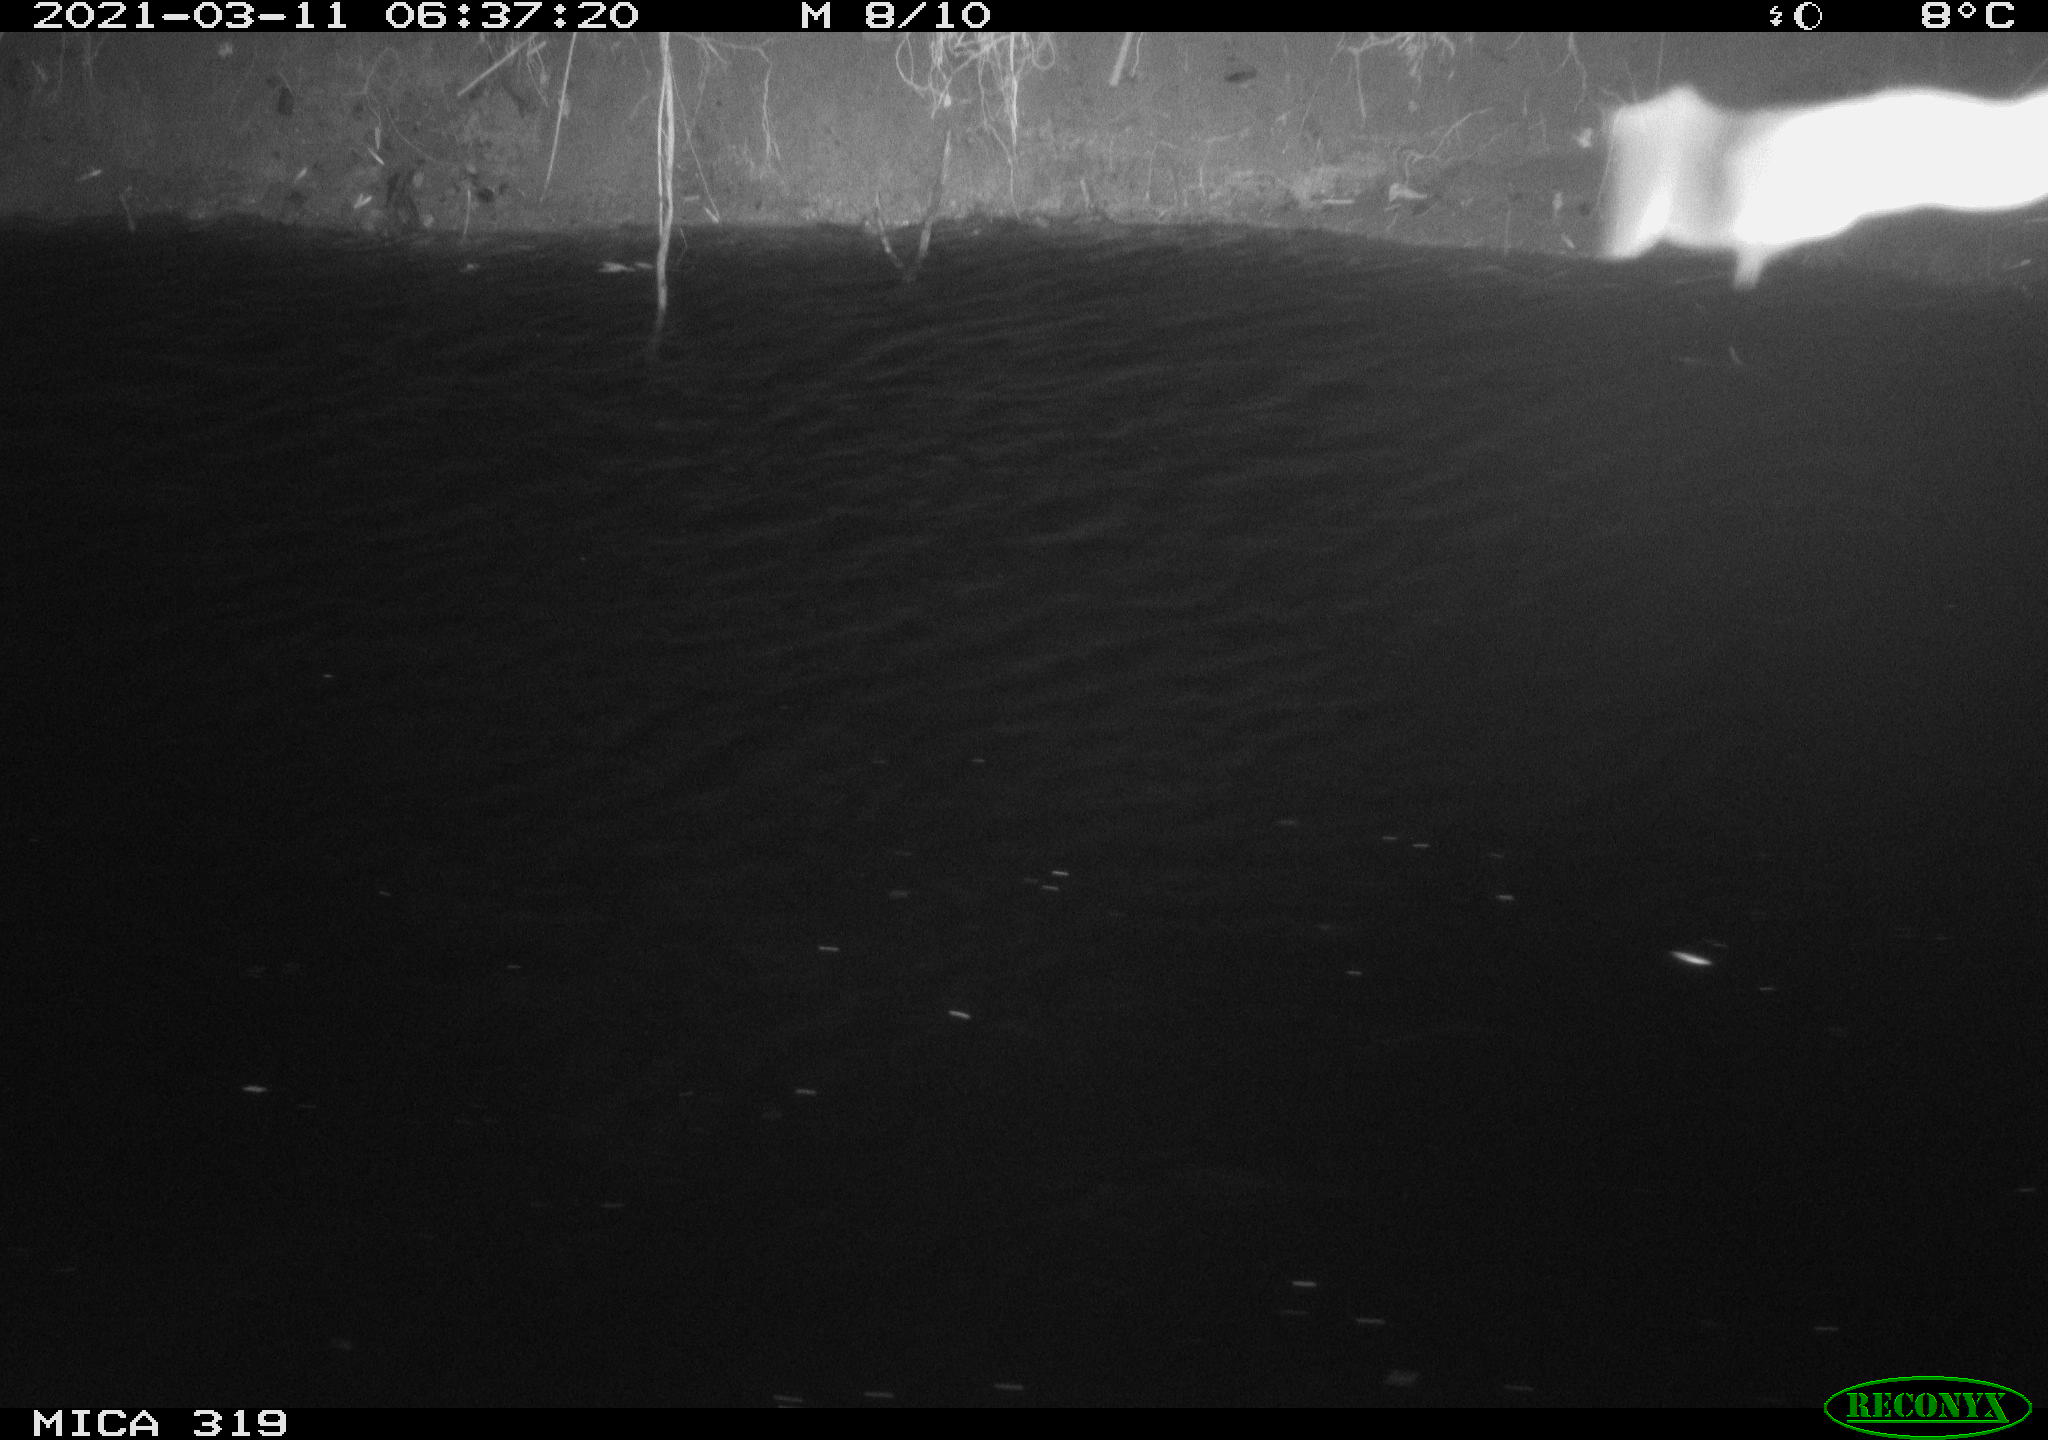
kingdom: Animalia
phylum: Chordata
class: Aves
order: Anseriformes
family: Anatidae
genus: Anas
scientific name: Anas platyrhynchos
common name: Mallard
